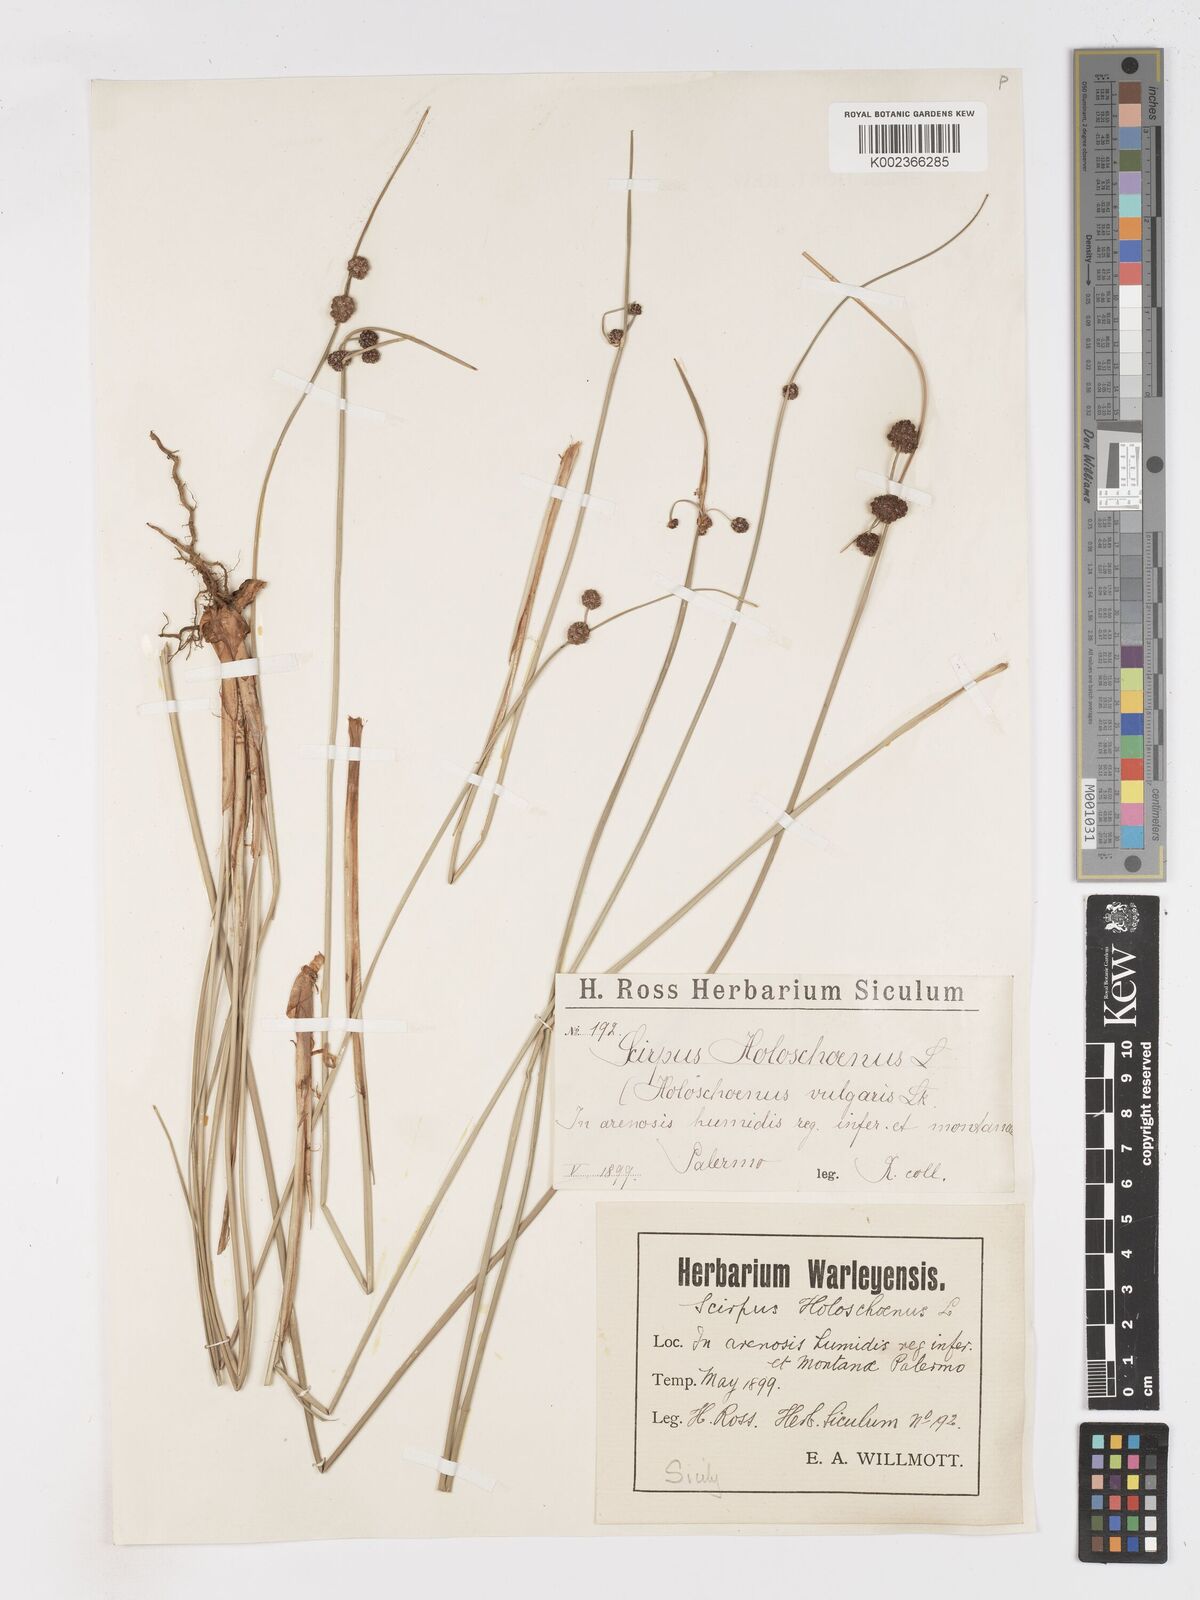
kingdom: Plantae
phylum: Tracheophyta
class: Liliopsida
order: Poales
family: Cyperaceae
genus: Scirpoides
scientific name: Scirpoides holoschoenus
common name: Round-headed club-rush
